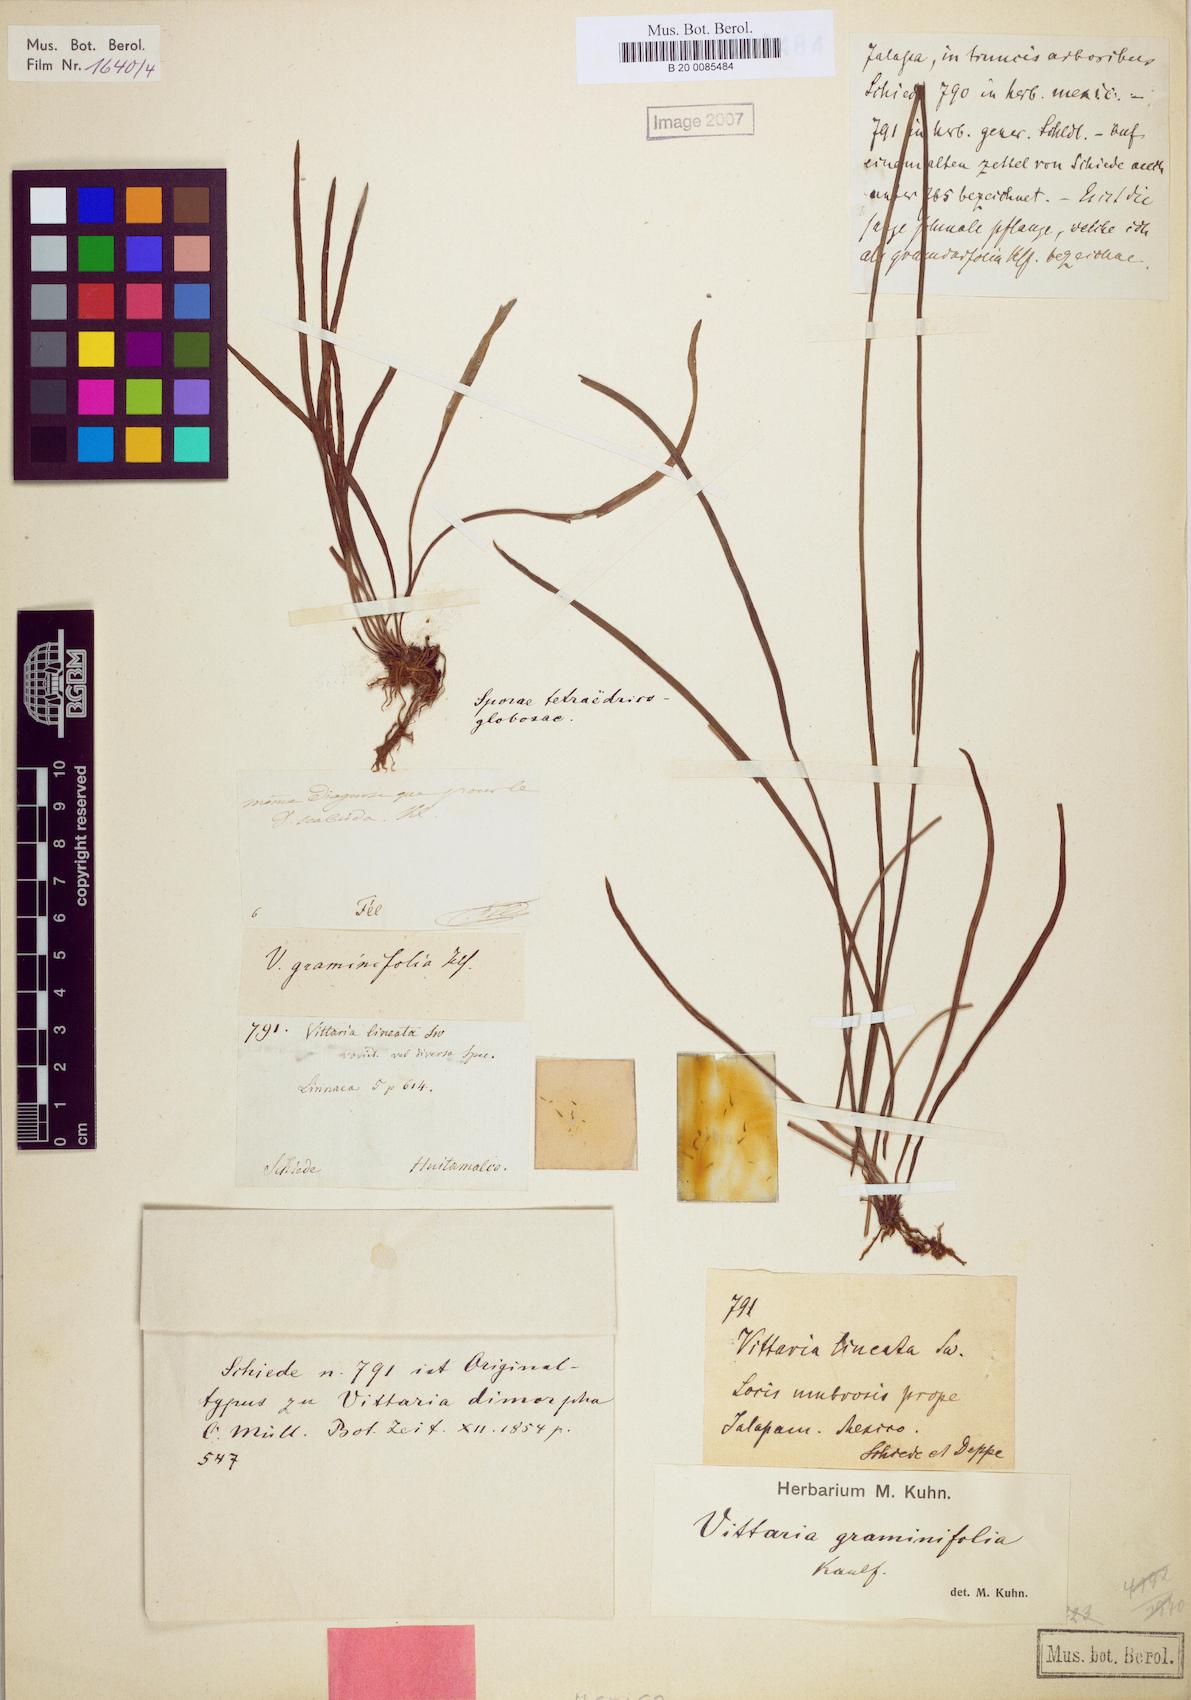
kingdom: Plantae
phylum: Tracheophyta
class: Polypodiopsida
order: Polypodiales
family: Pteridaceae
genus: Vittaria
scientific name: Vittaria graminifolia
